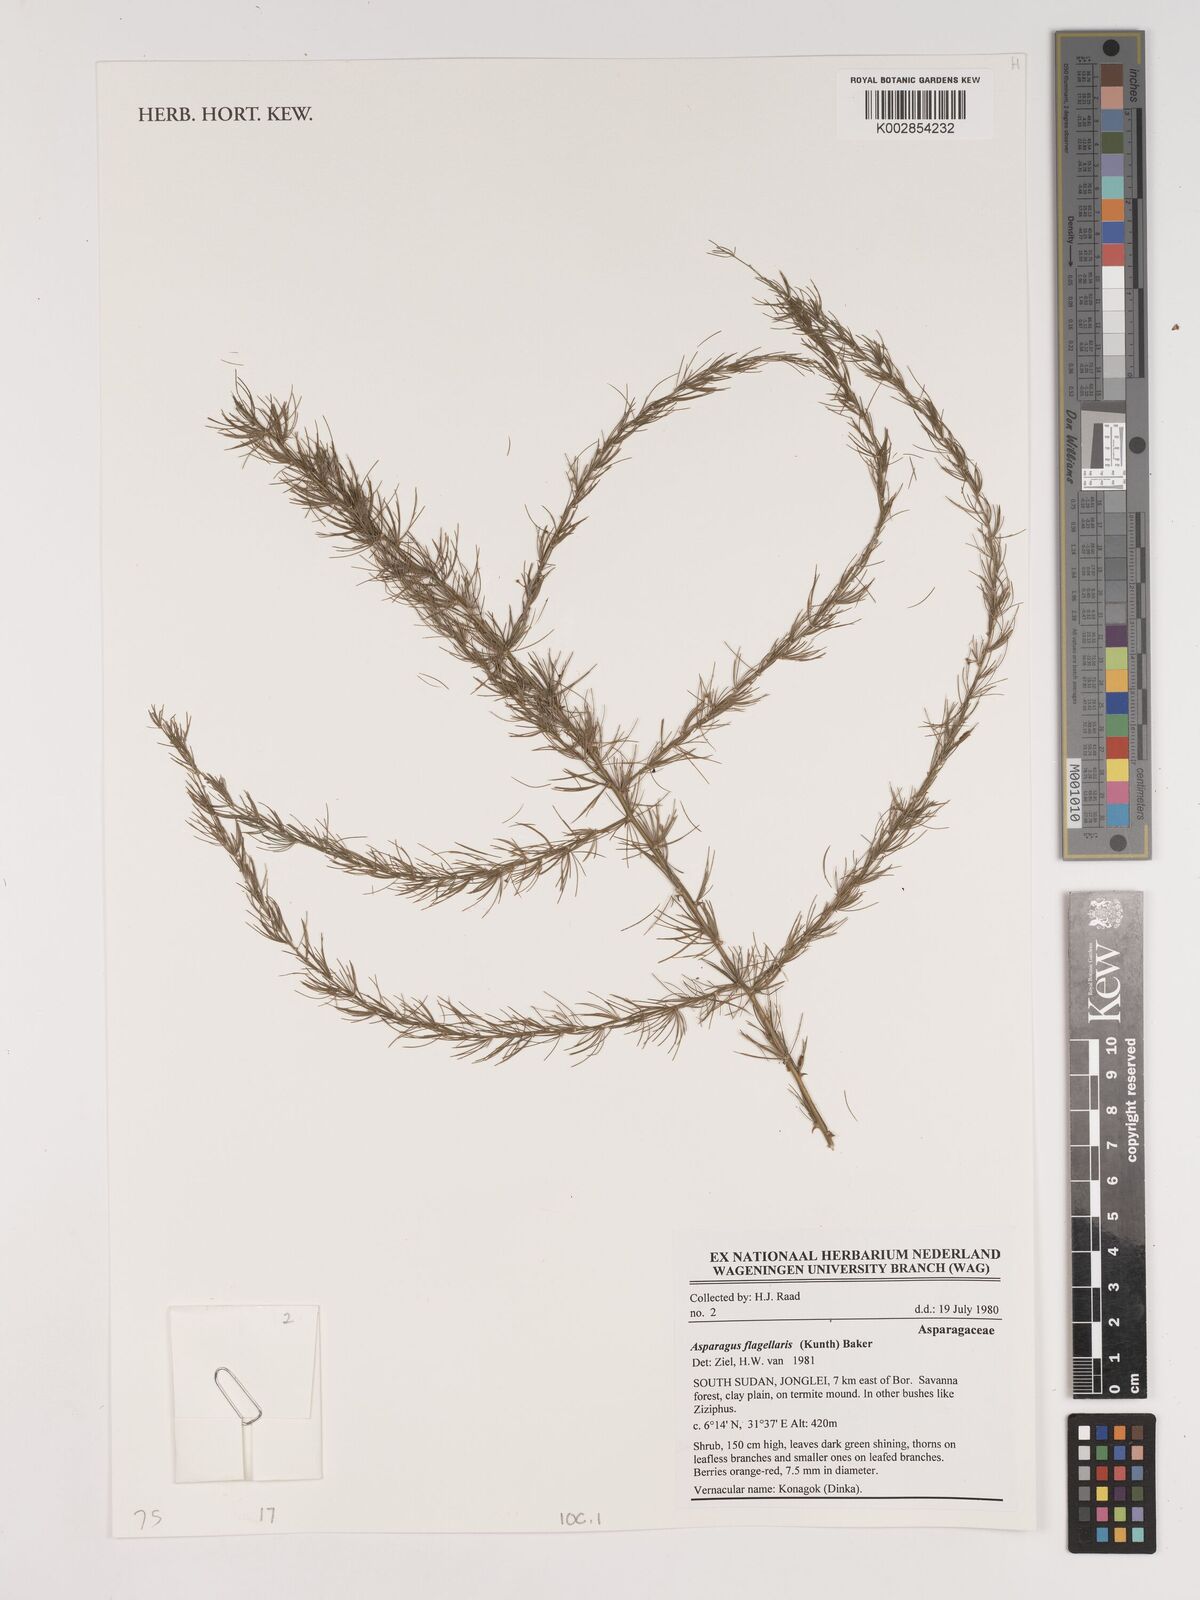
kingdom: Plantae
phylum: Tracheophyta
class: Liliopsida
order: Asparagales
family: Asparagaceae
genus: Asparagus
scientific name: Asparagus flagellaris
